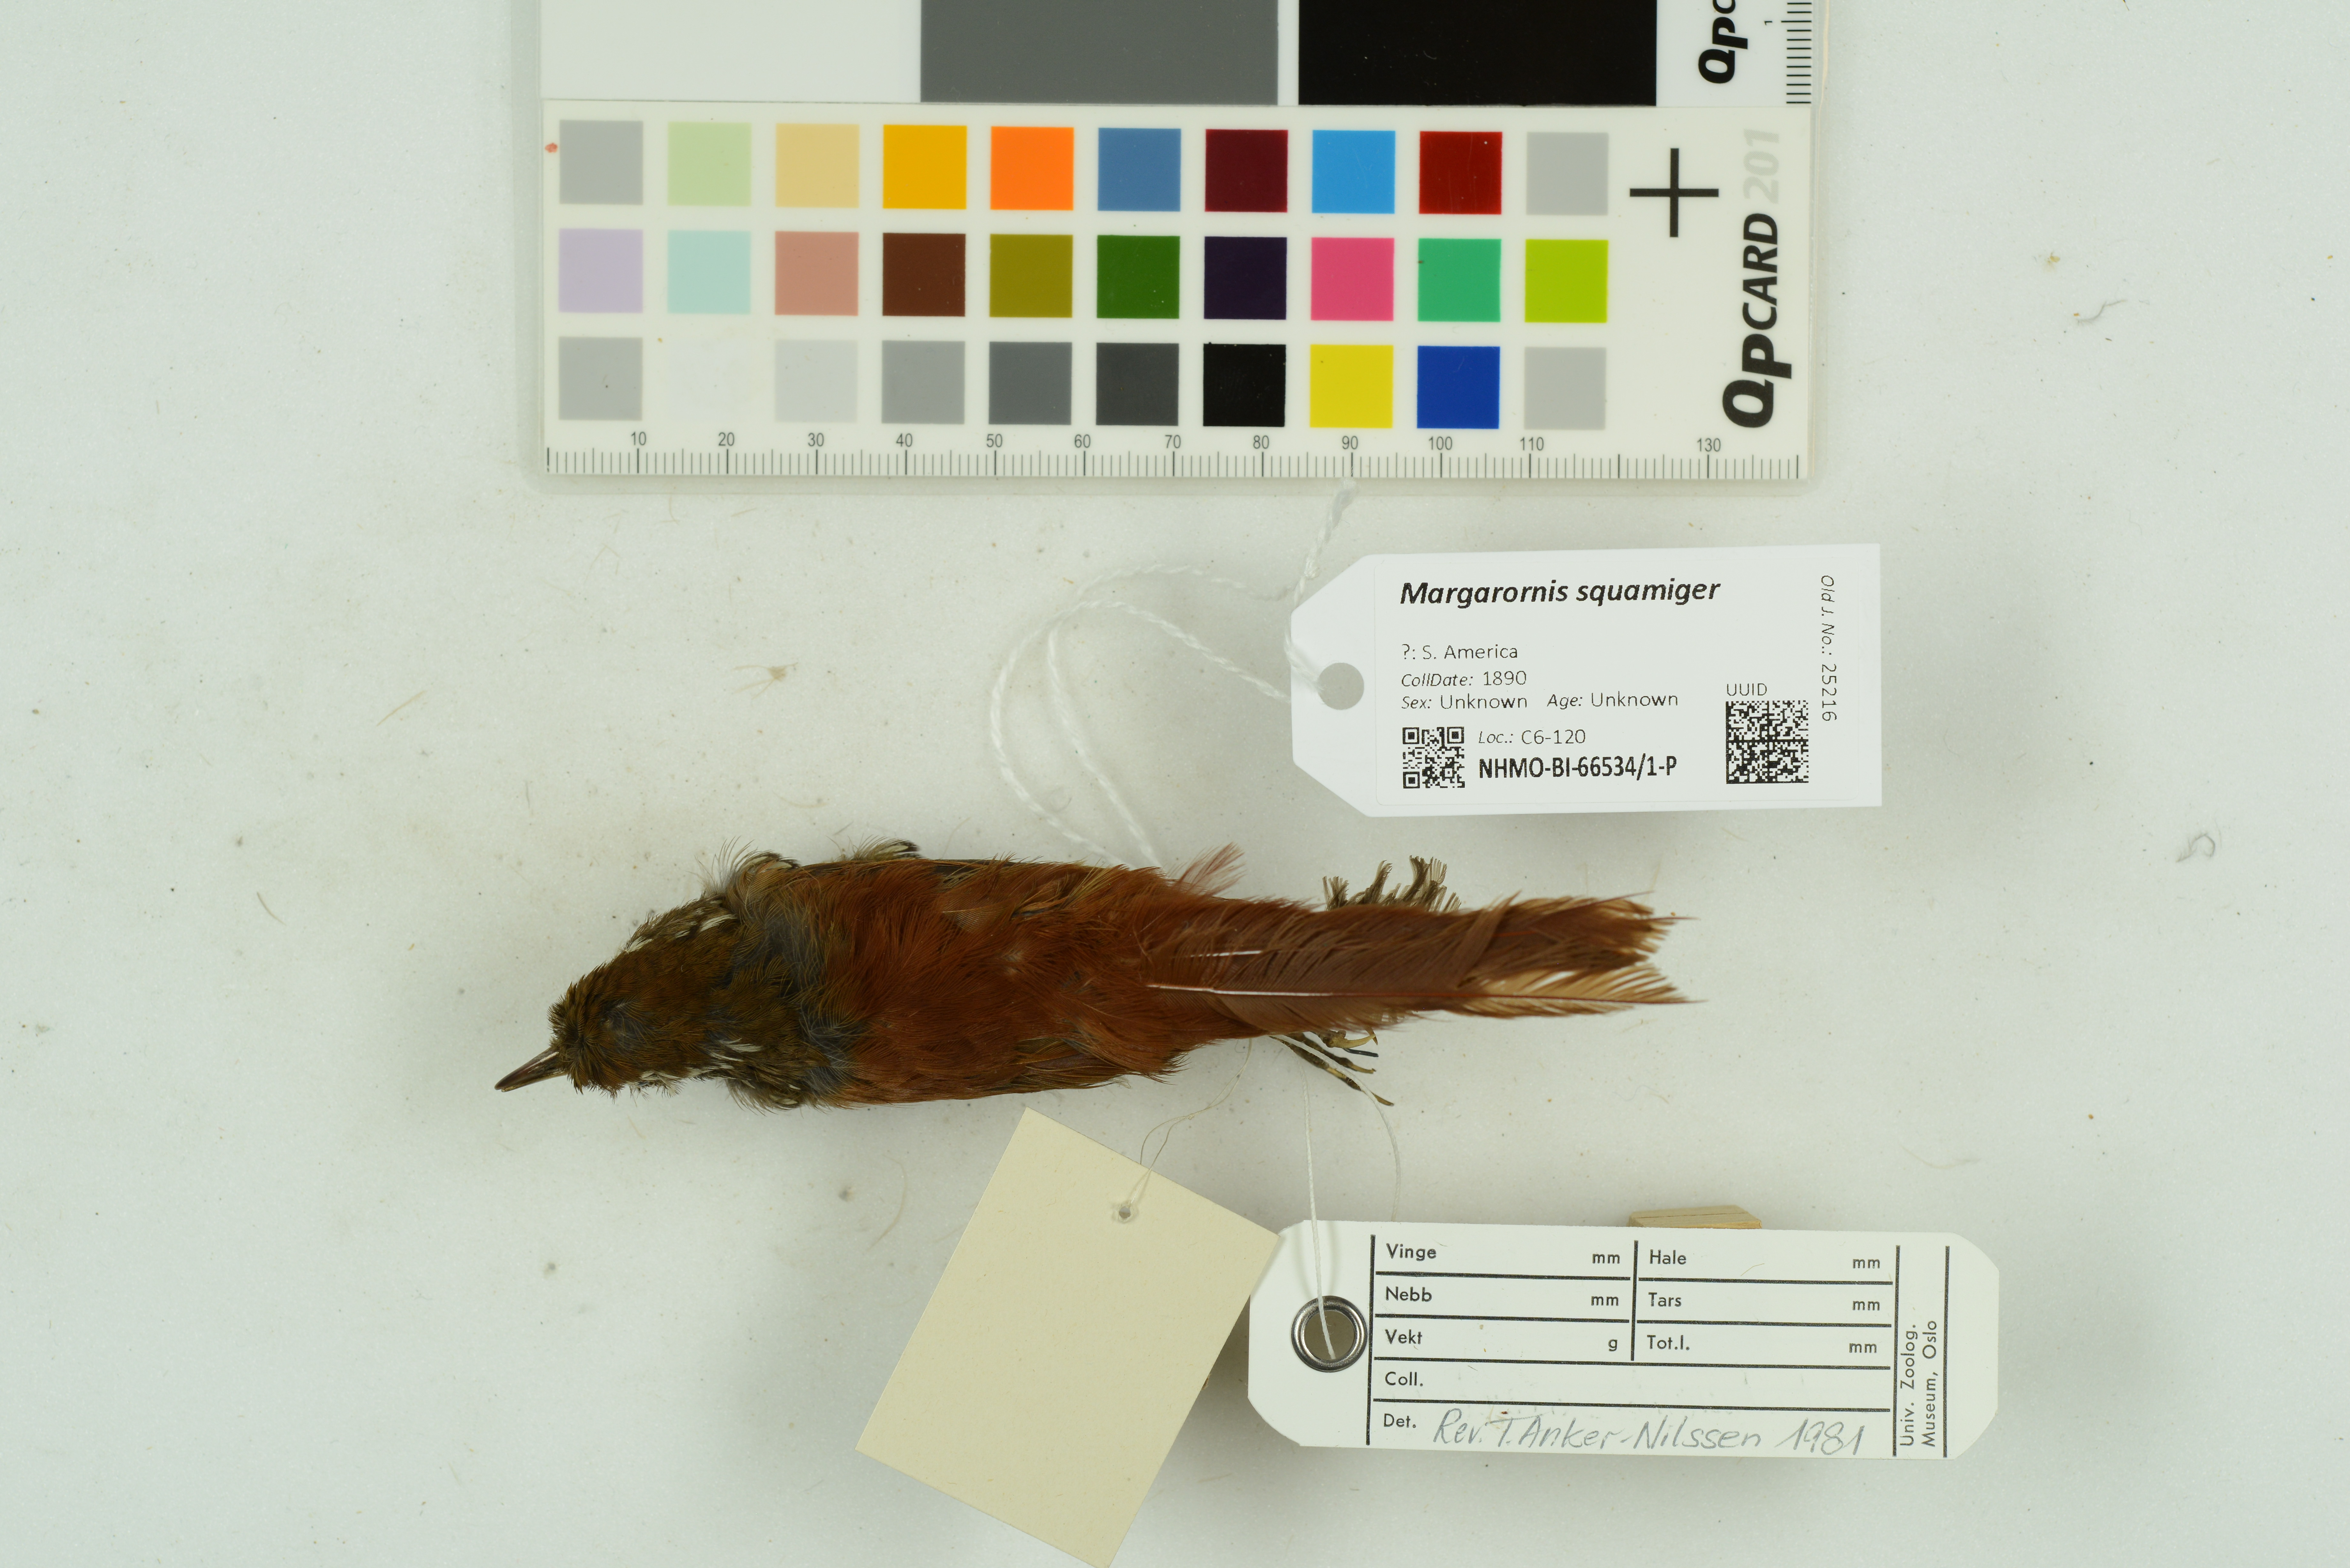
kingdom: Animalia
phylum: Chordata
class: Aves
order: Passeriformes
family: Furnariidae
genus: Margarornis
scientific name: Margarornis squamiger
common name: Pearled treerunner
